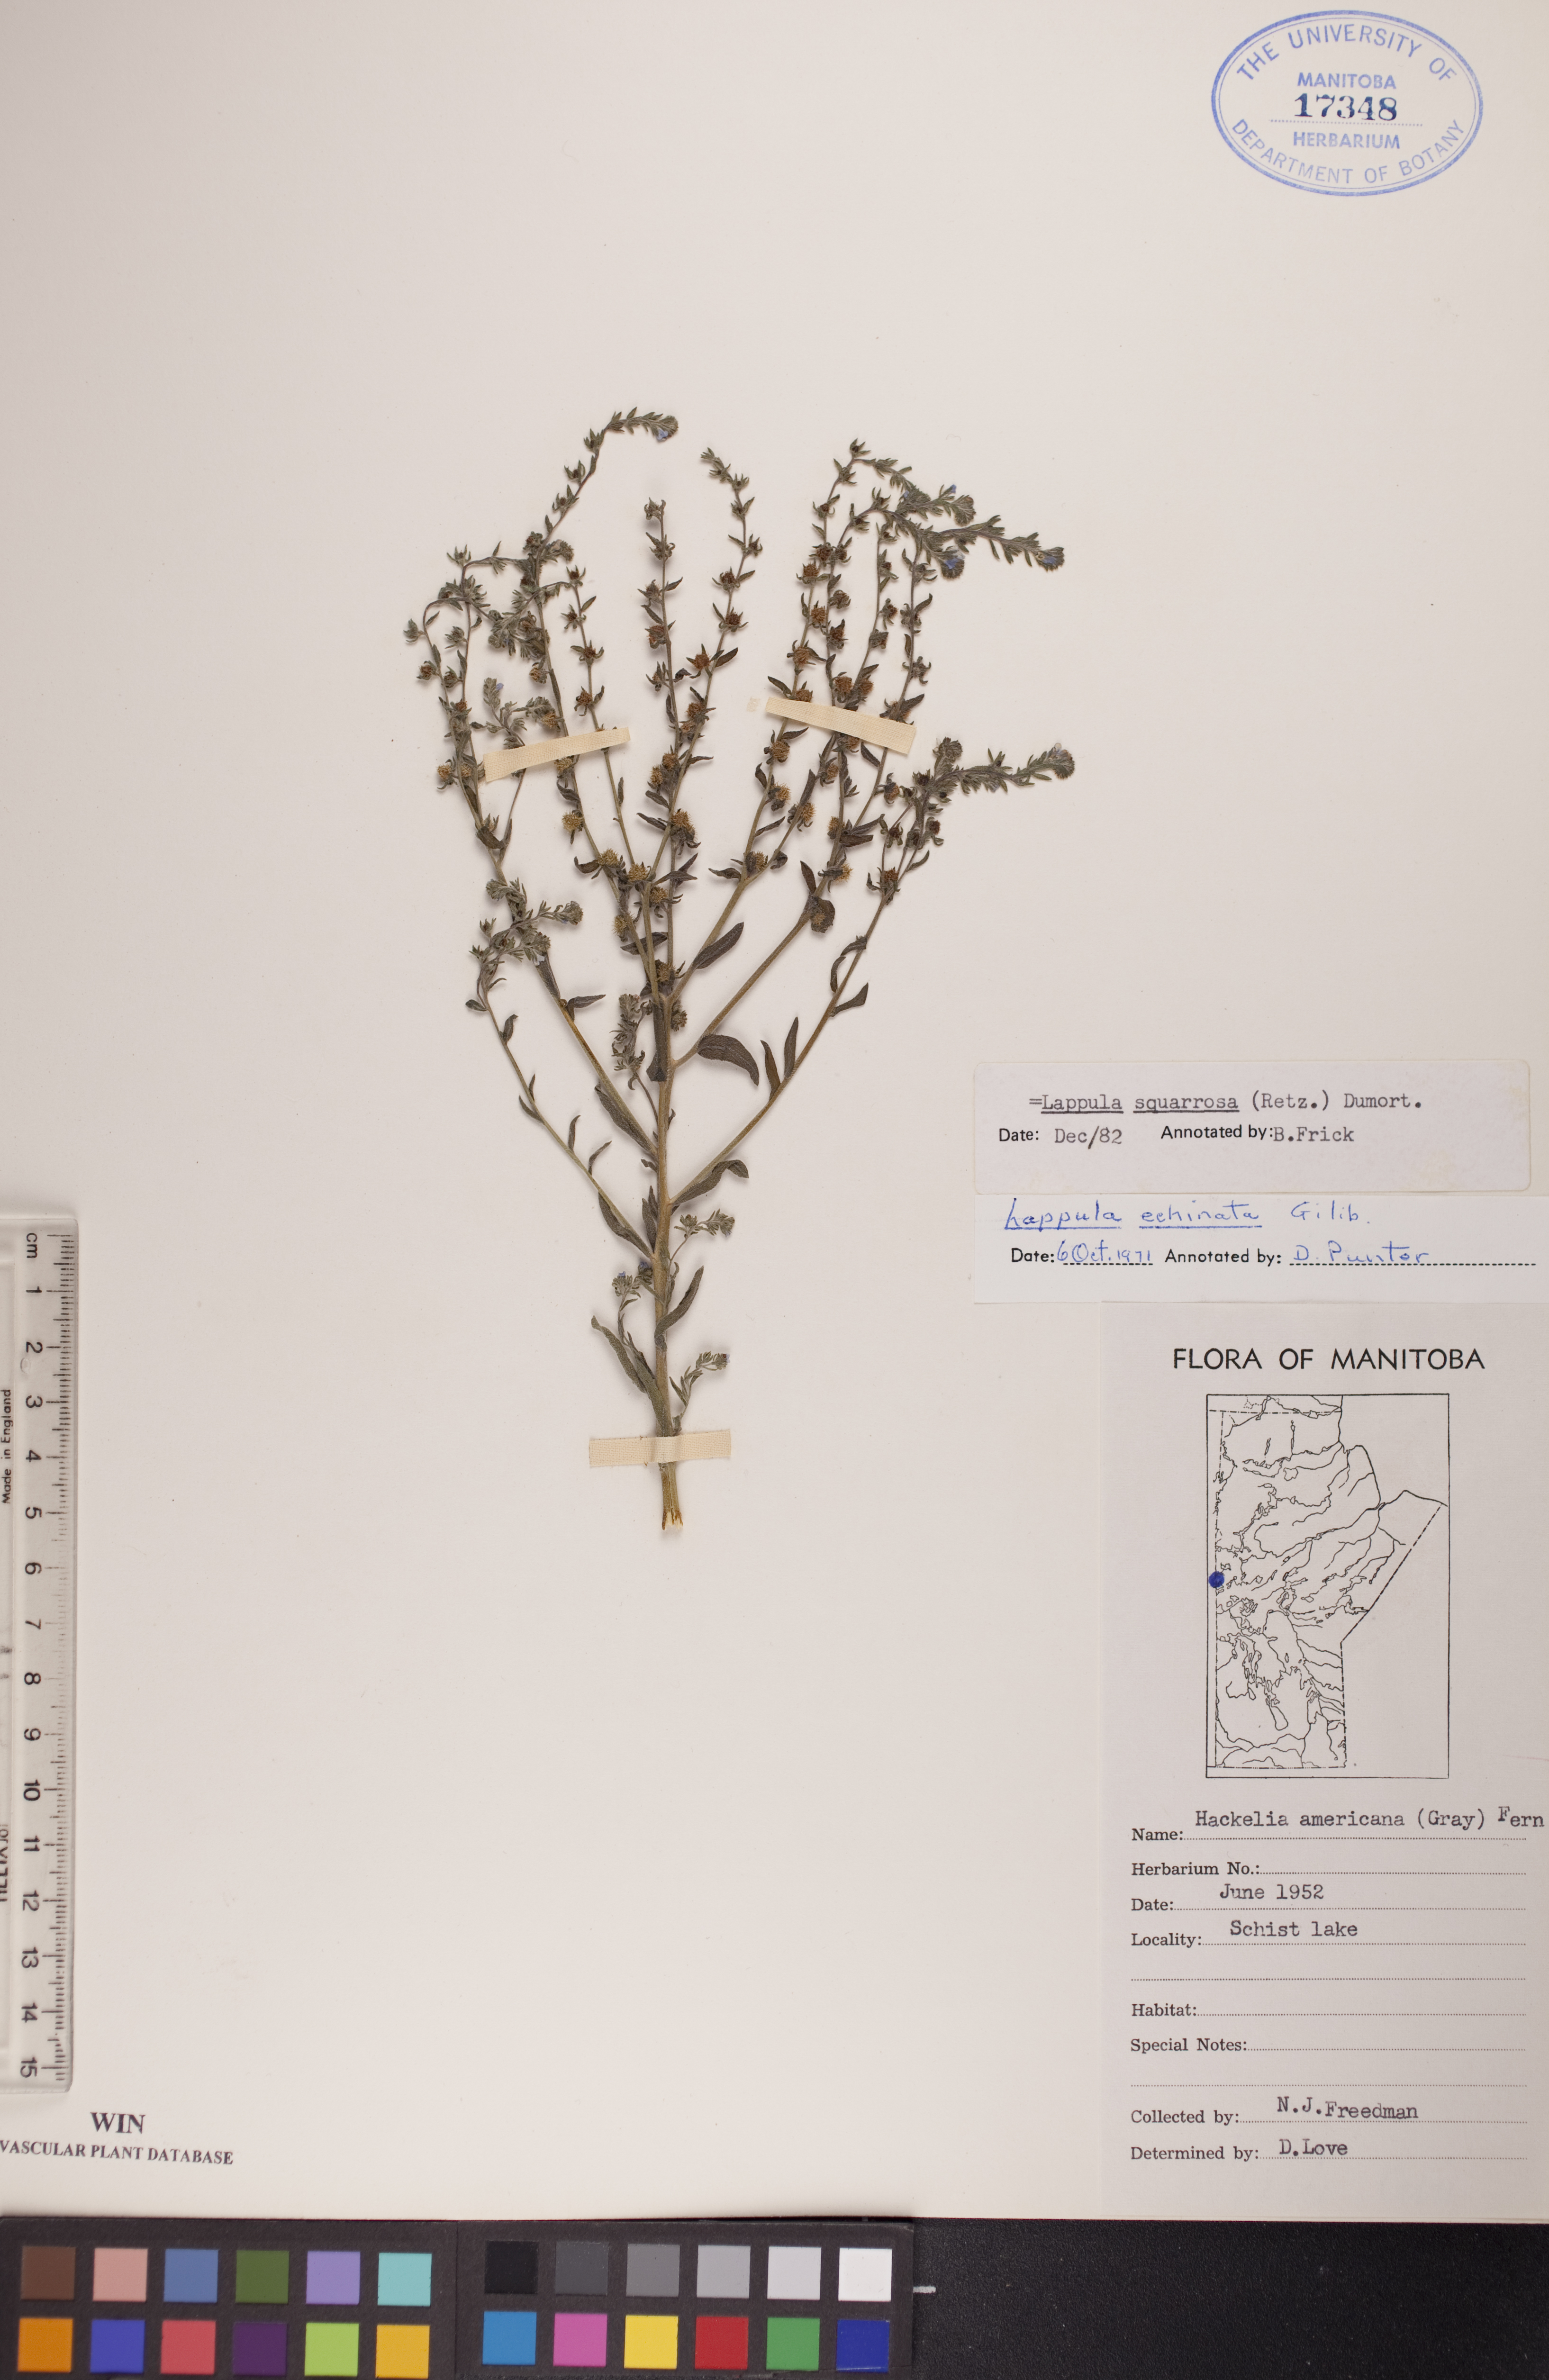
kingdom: Plantae
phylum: Tracheophyta
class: Magnoliopsida
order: Boraginales
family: Boraginaceae
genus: Lappula
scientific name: Lappula squarrosa
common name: European stickseed
